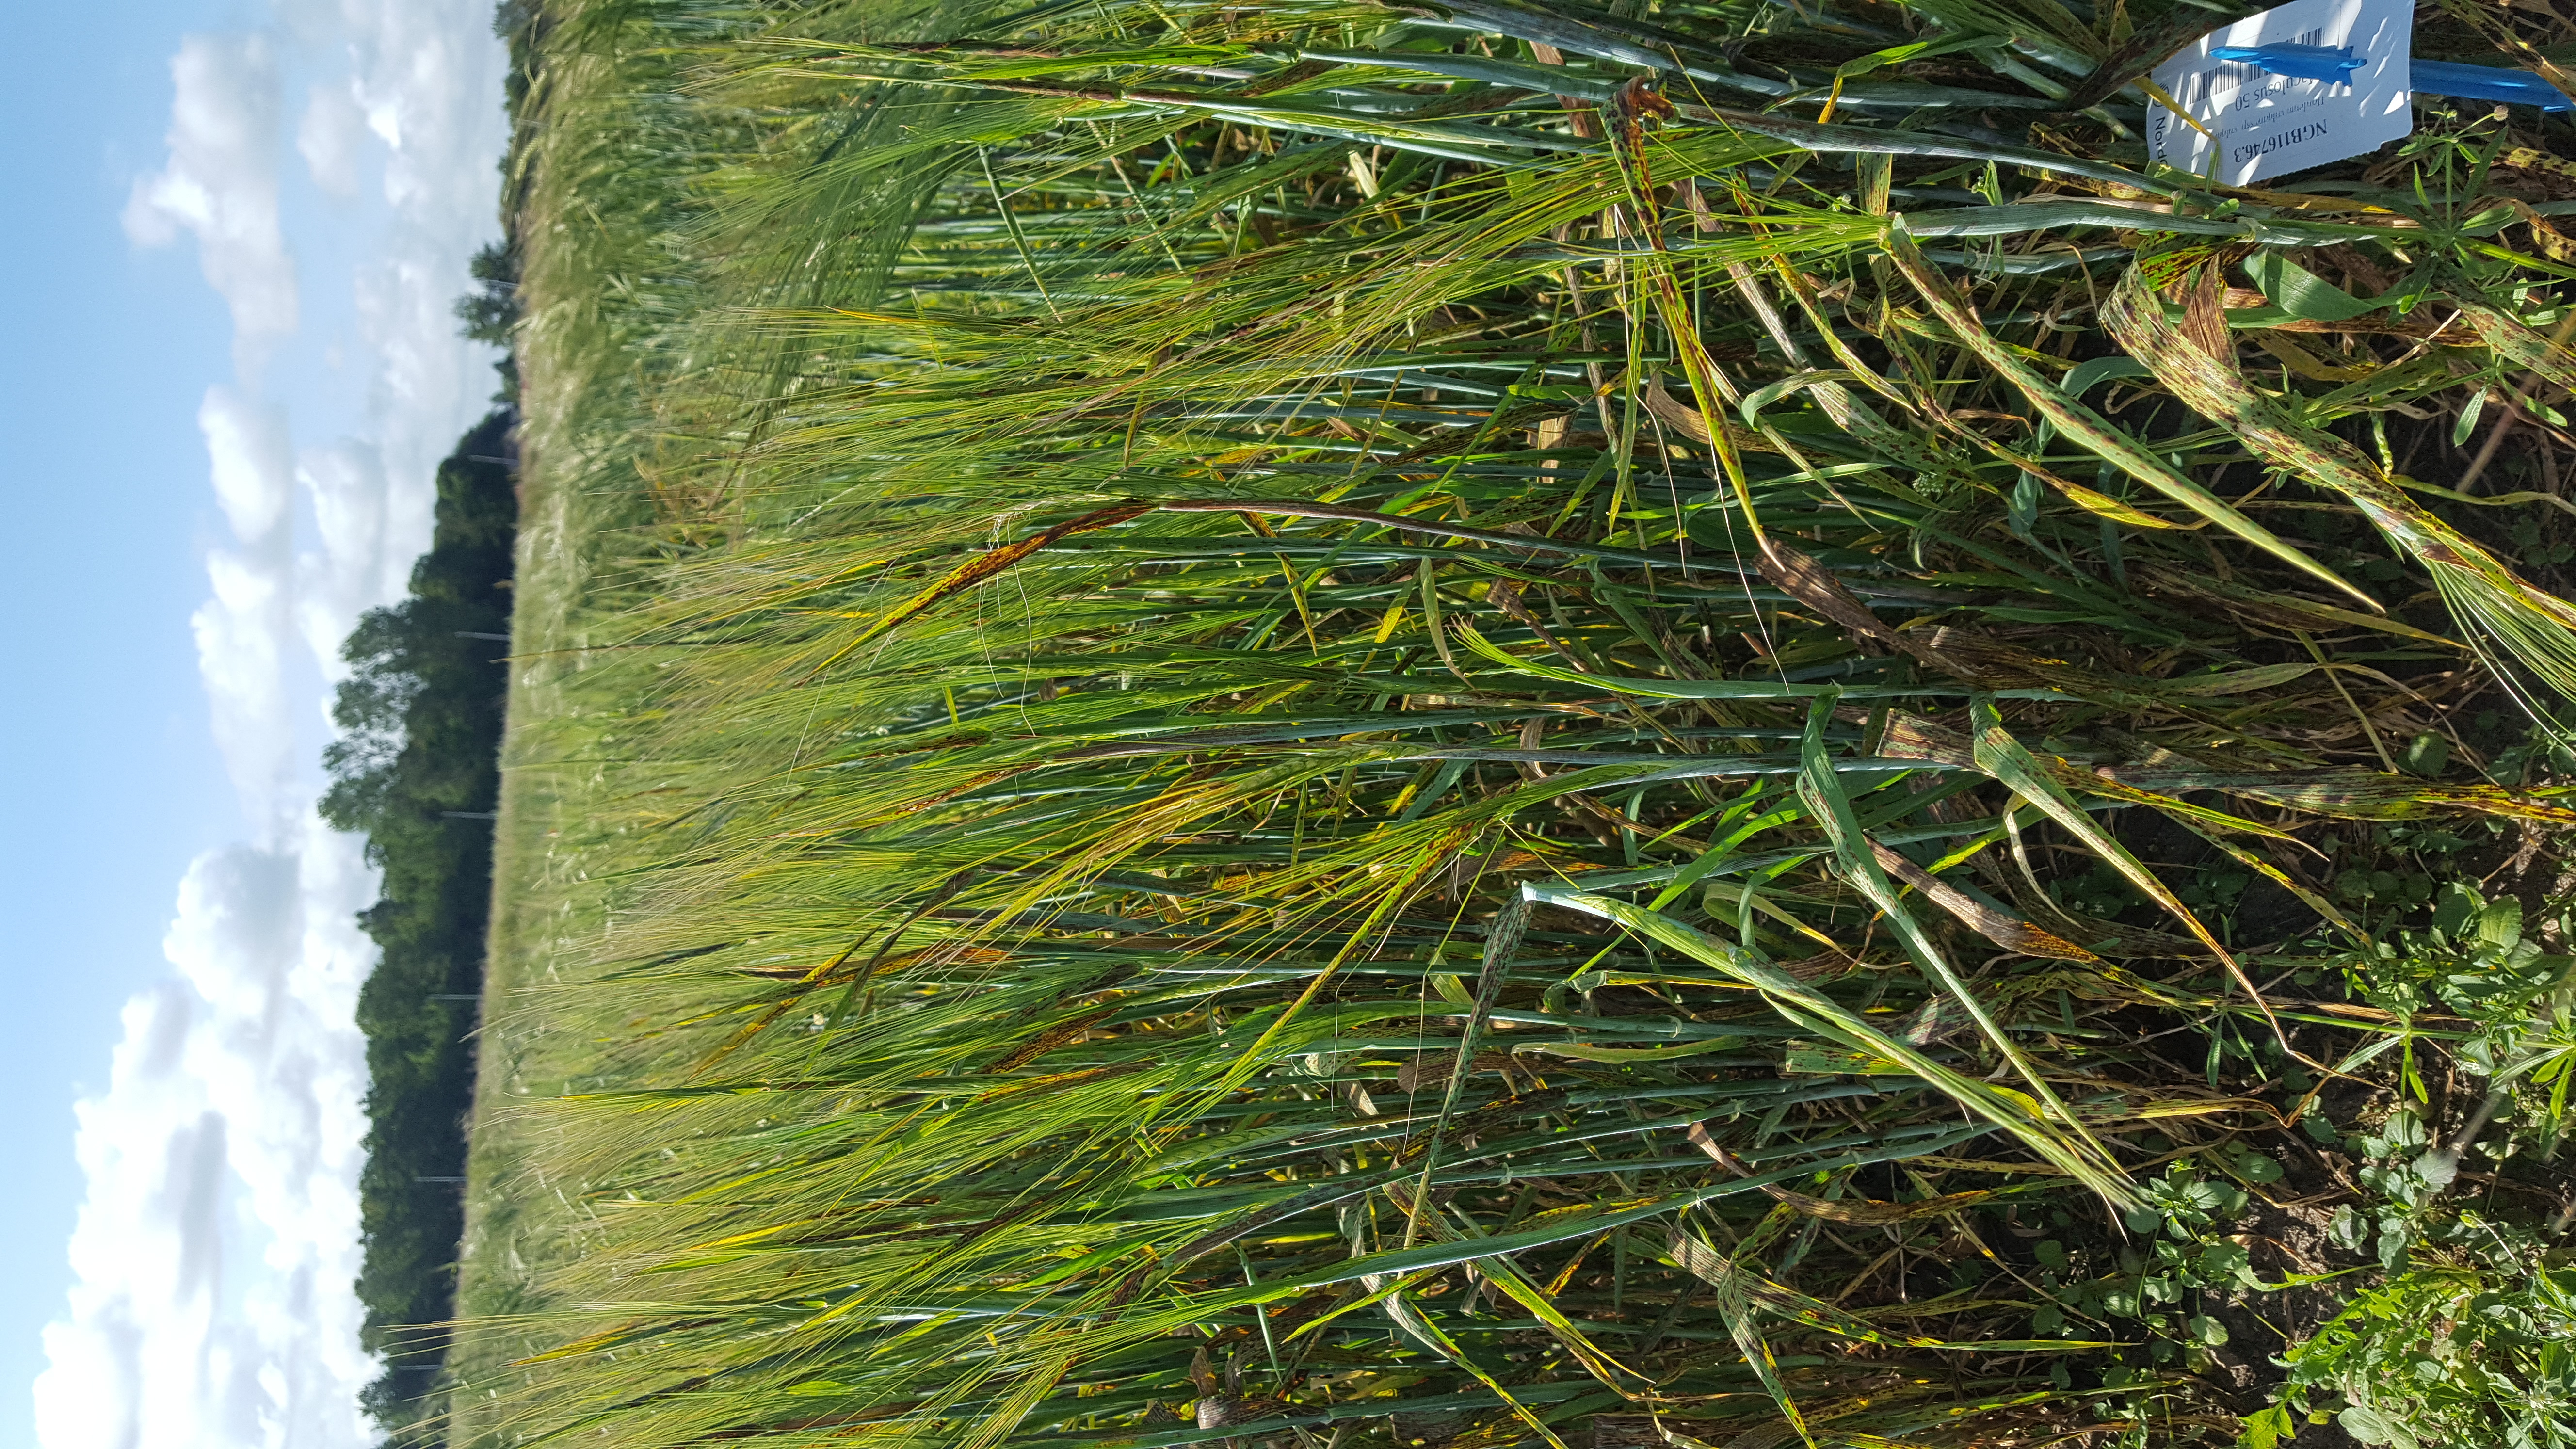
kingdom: Plantae
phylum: Tracheophyta
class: Liliopsida
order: Poales
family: Poaceae
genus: Hordeum
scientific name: Hordeum vulgare
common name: Common barley
